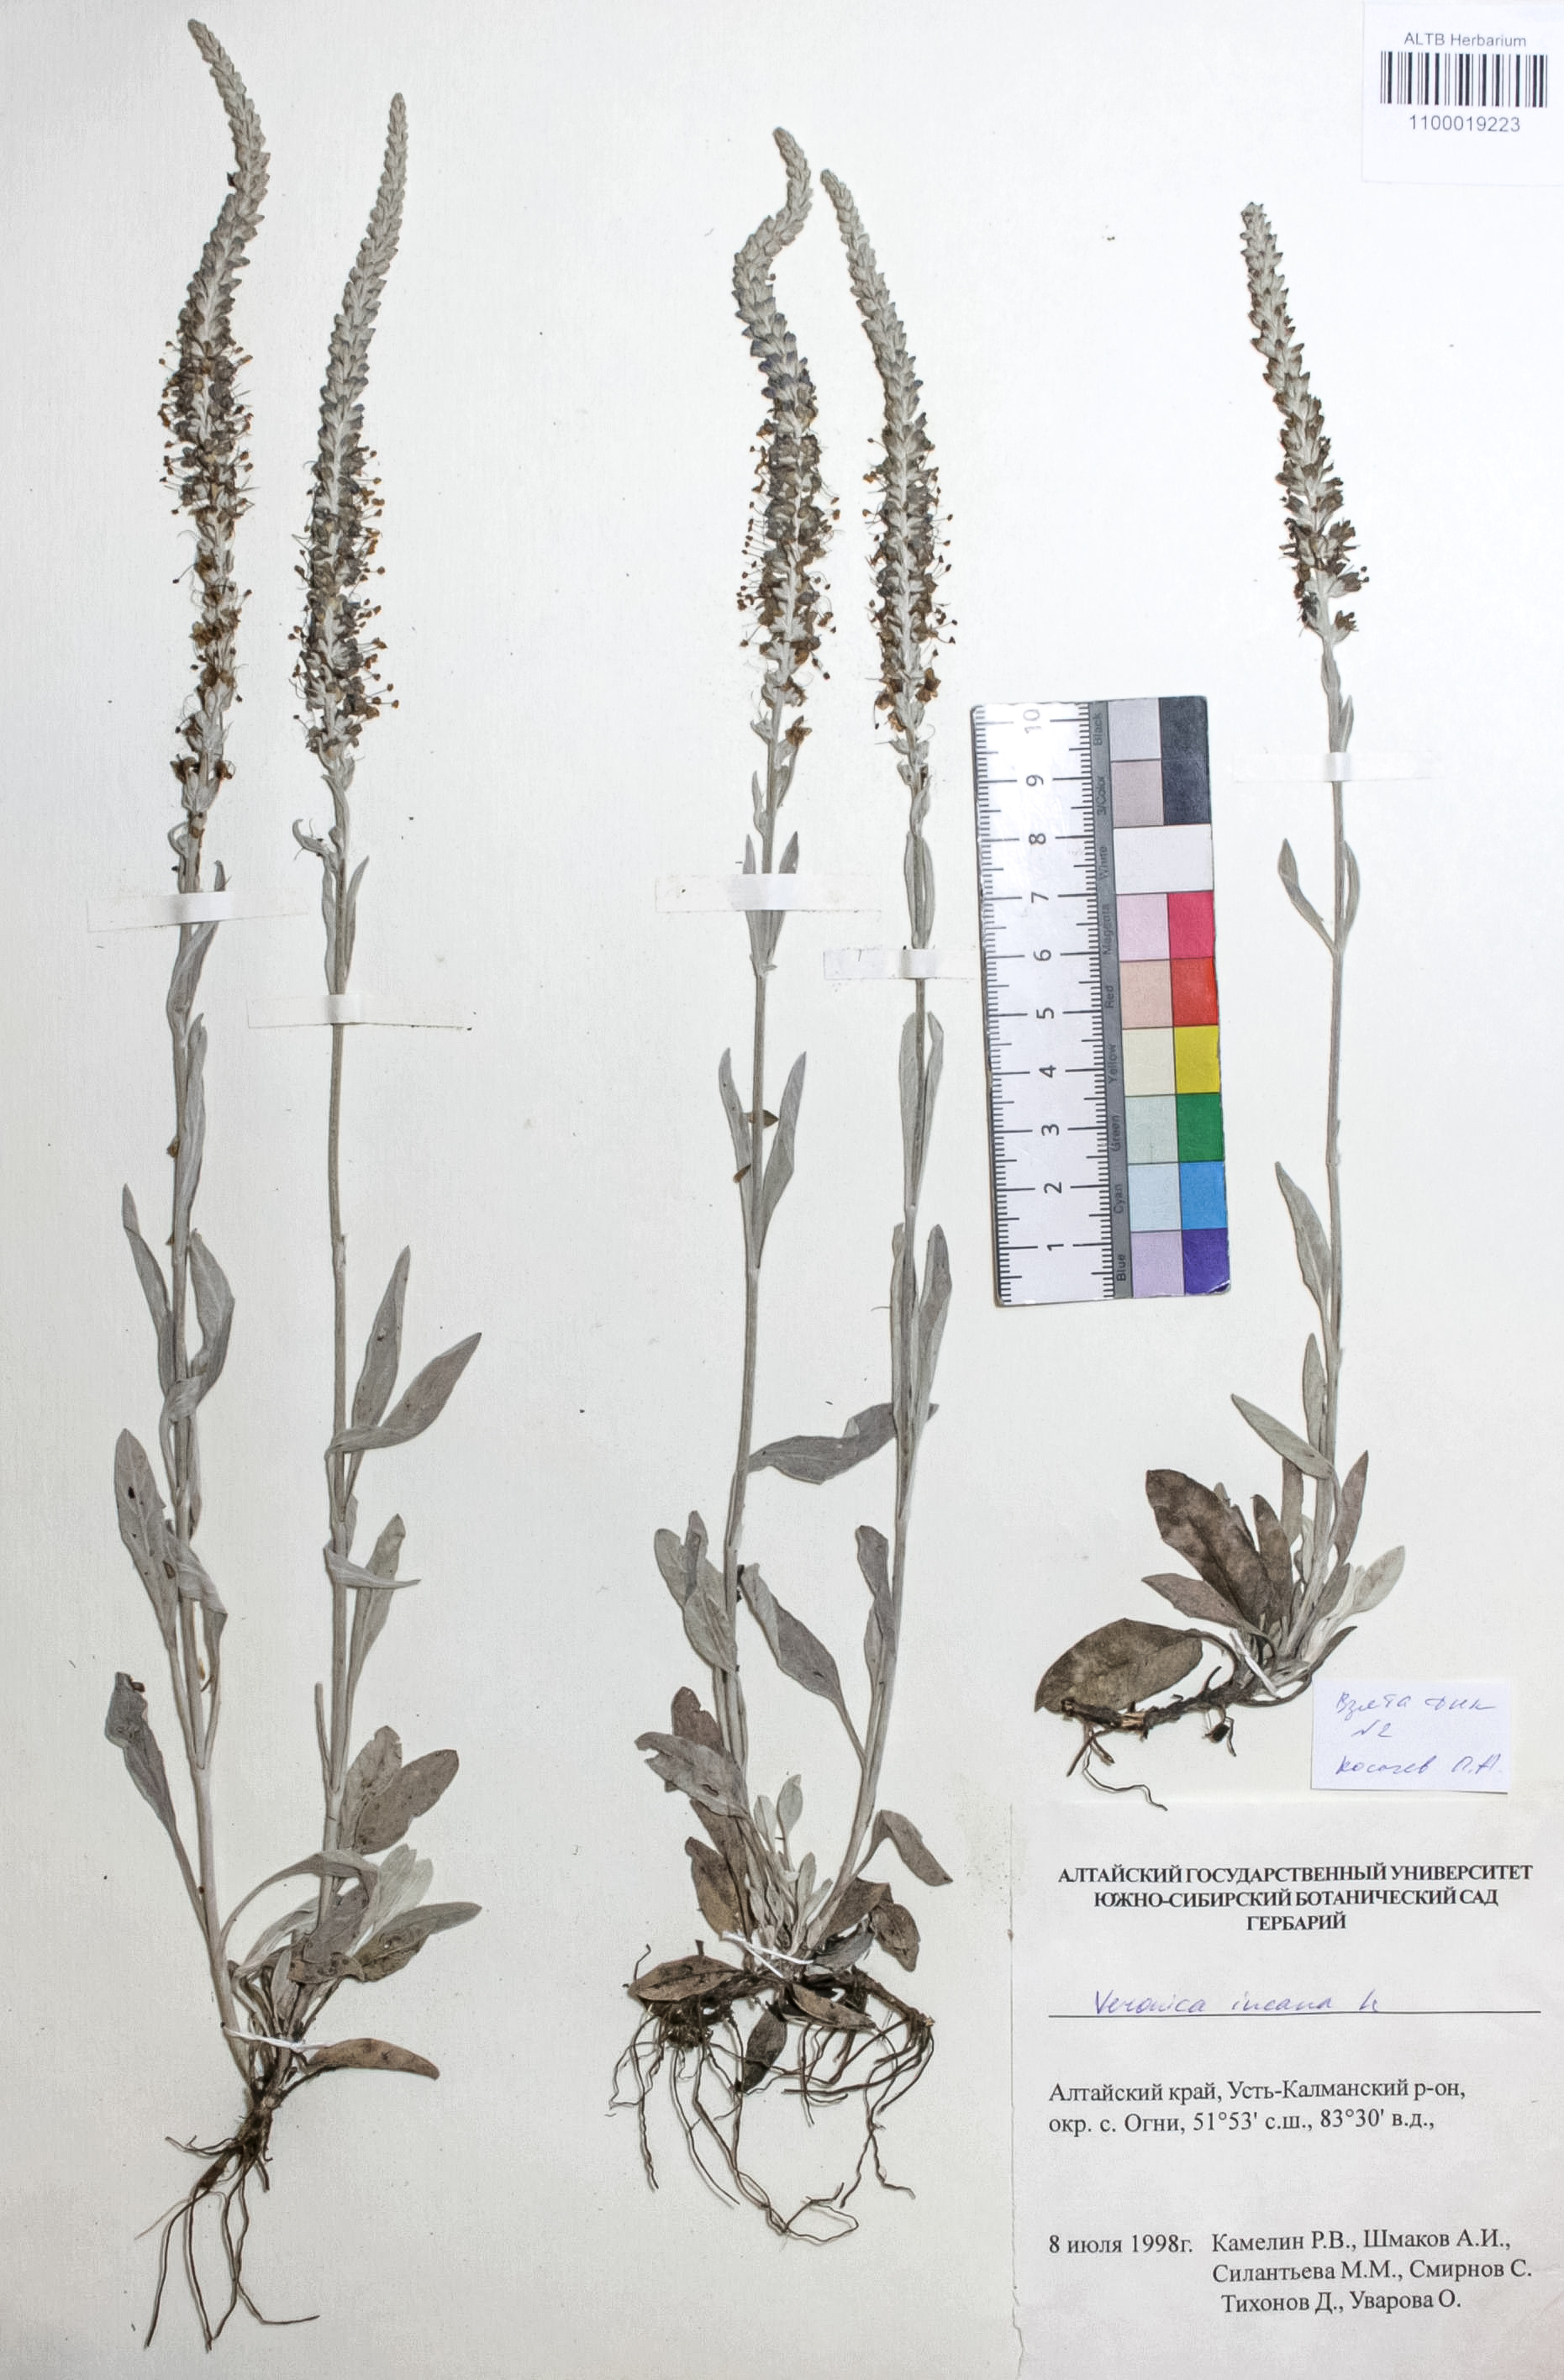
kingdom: Plantae
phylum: Tracheophyta
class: Magnoliopsida
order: Lamiales
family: Plantaginaceae
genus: Veronica
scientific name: Veronica incana
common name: Silver speedwell
